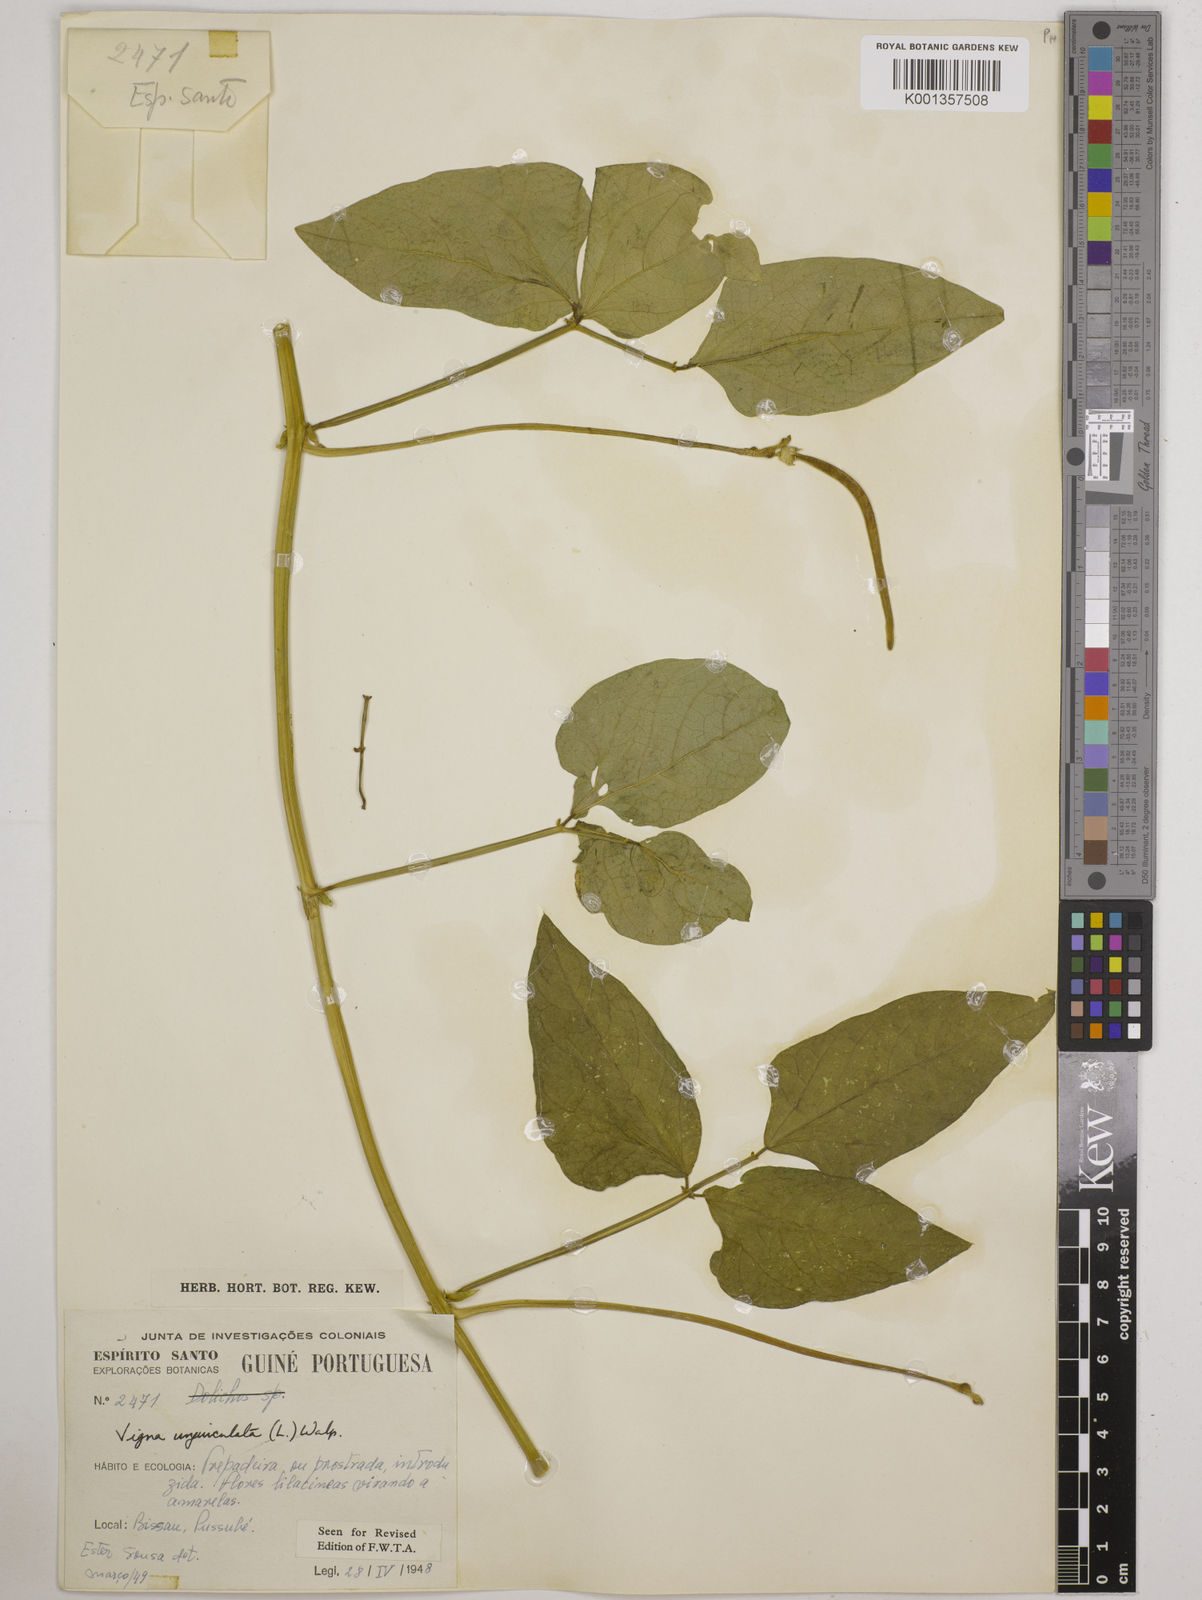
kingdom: Plantae
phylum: Tracheophyta
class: Magnoliopsida
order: Fabales
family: Fabaceae
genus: Vigna
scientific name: Vigna
